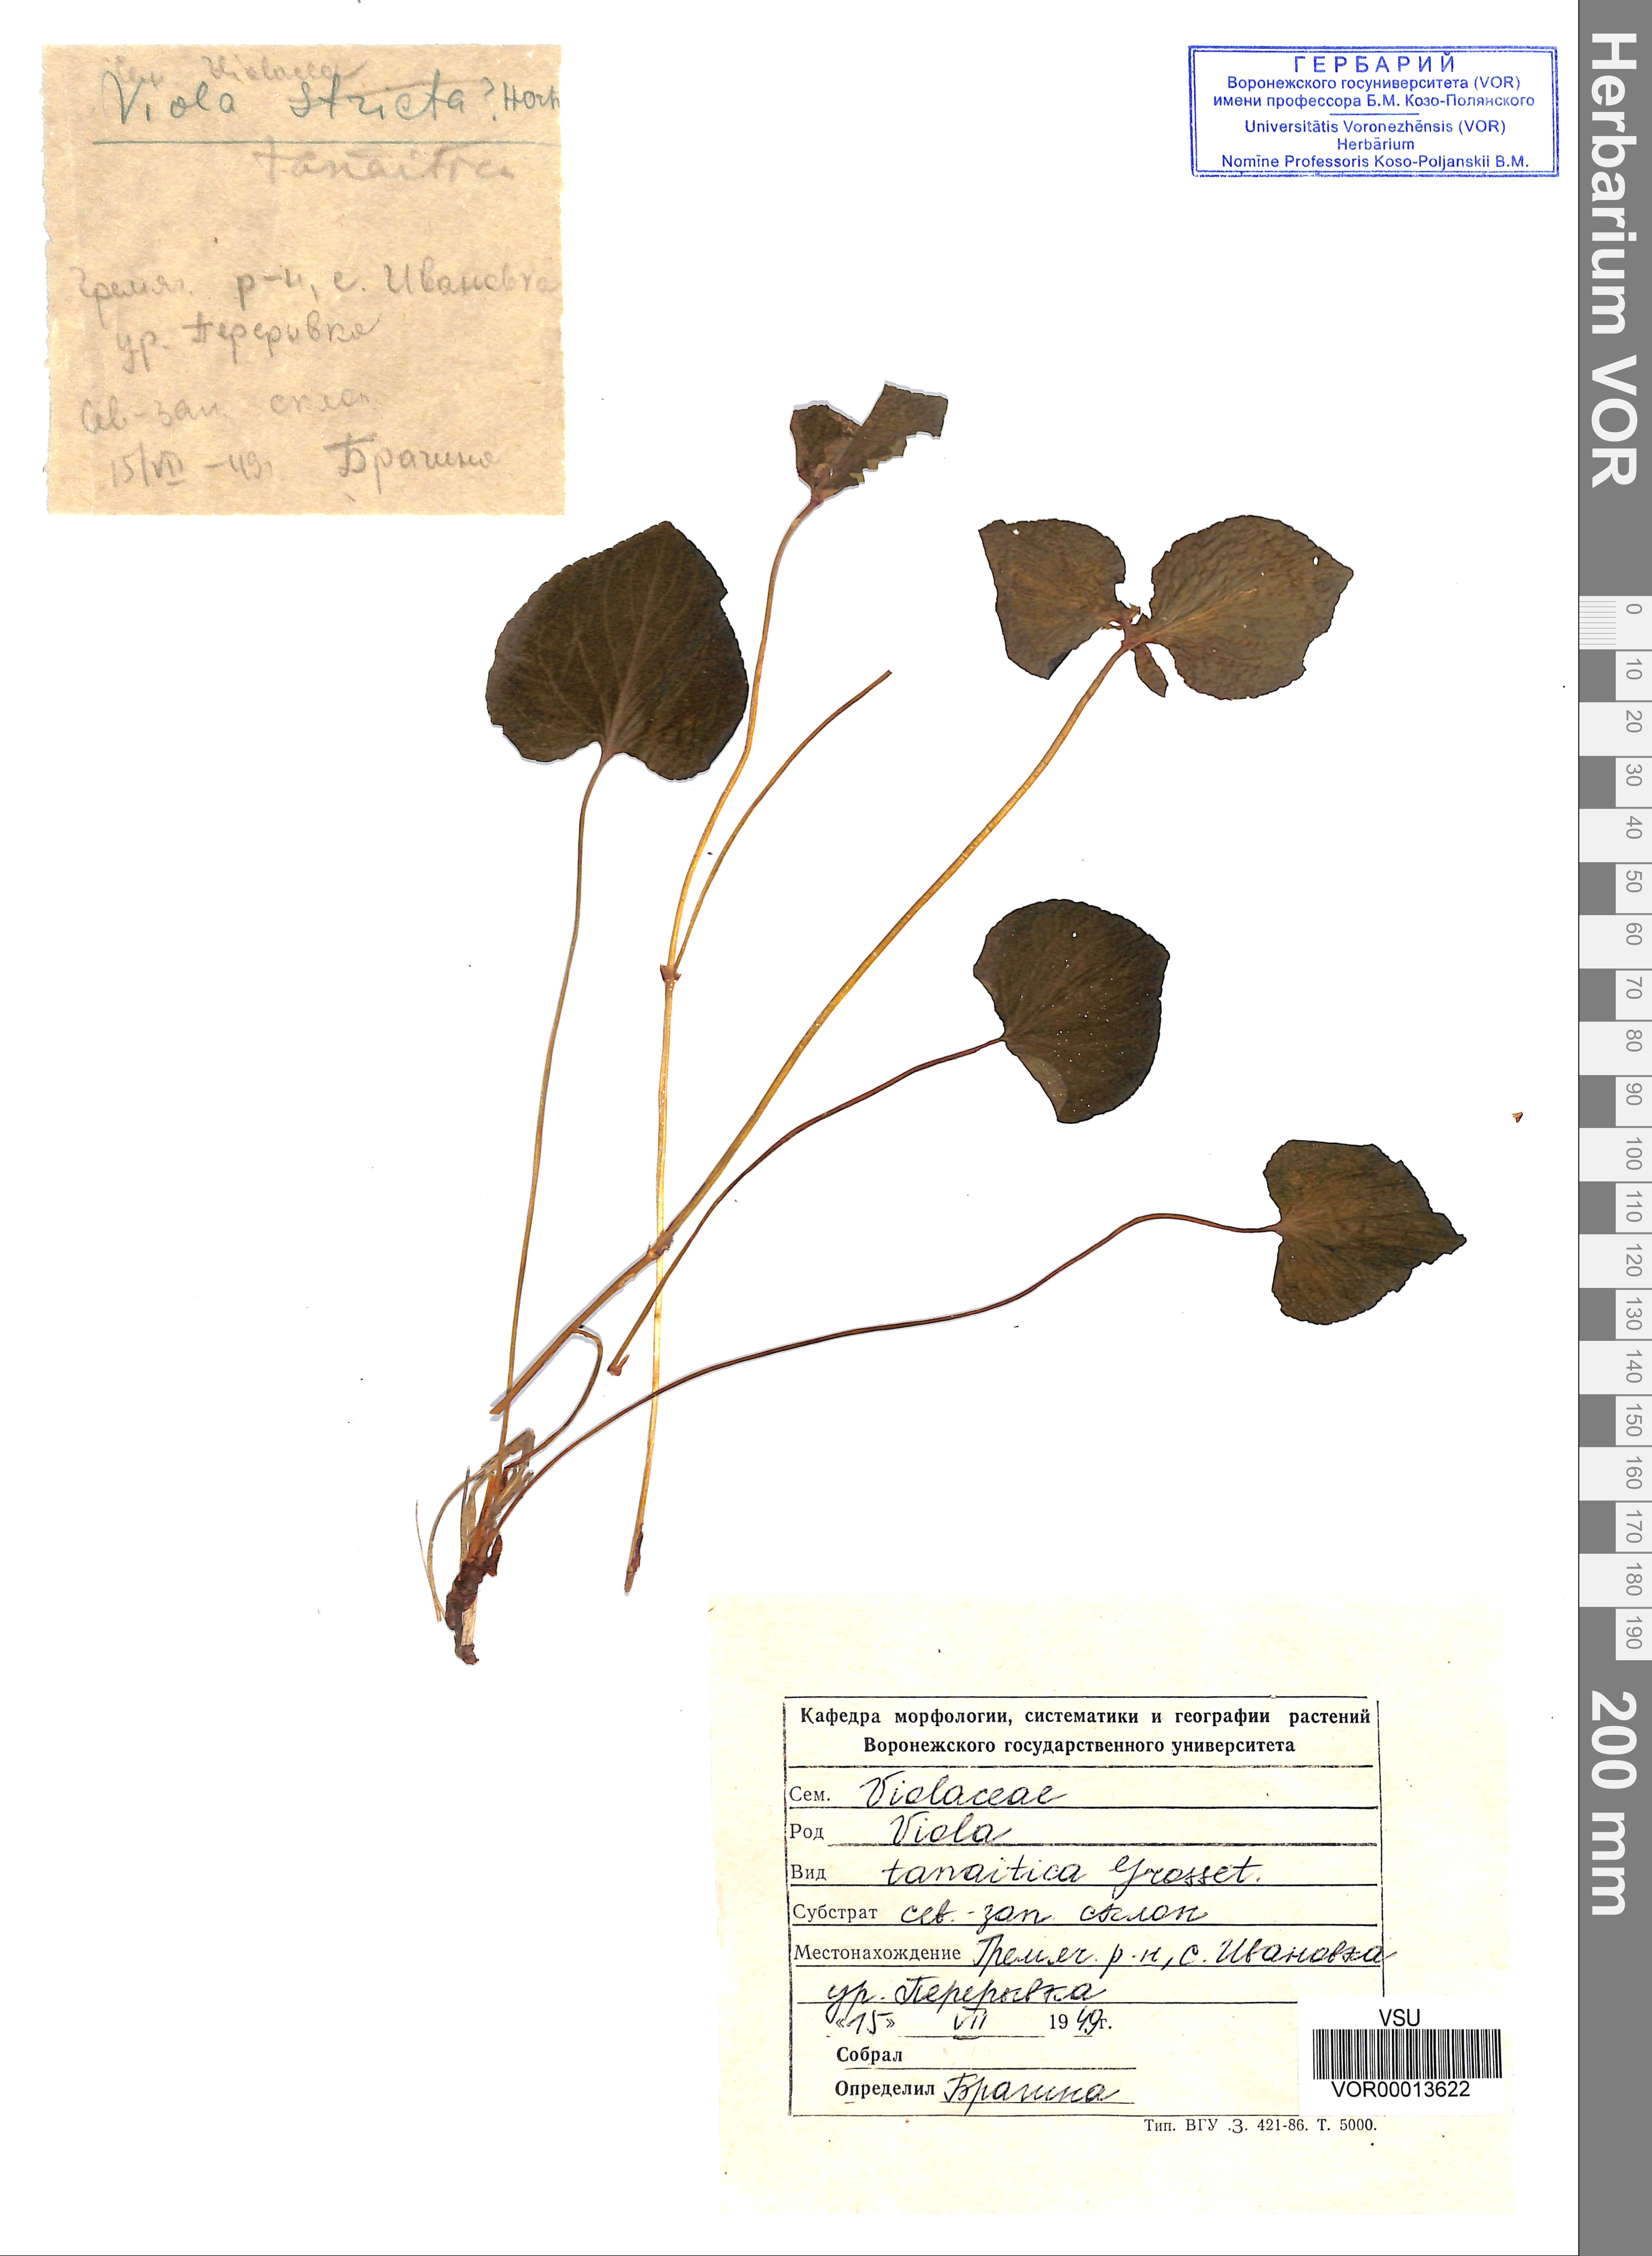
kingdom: Plantae
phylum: Tracheophyta
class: Magnoliopsida
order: Malpighiales
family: Violaceae
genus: Viola
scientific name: Viola tanaitica
